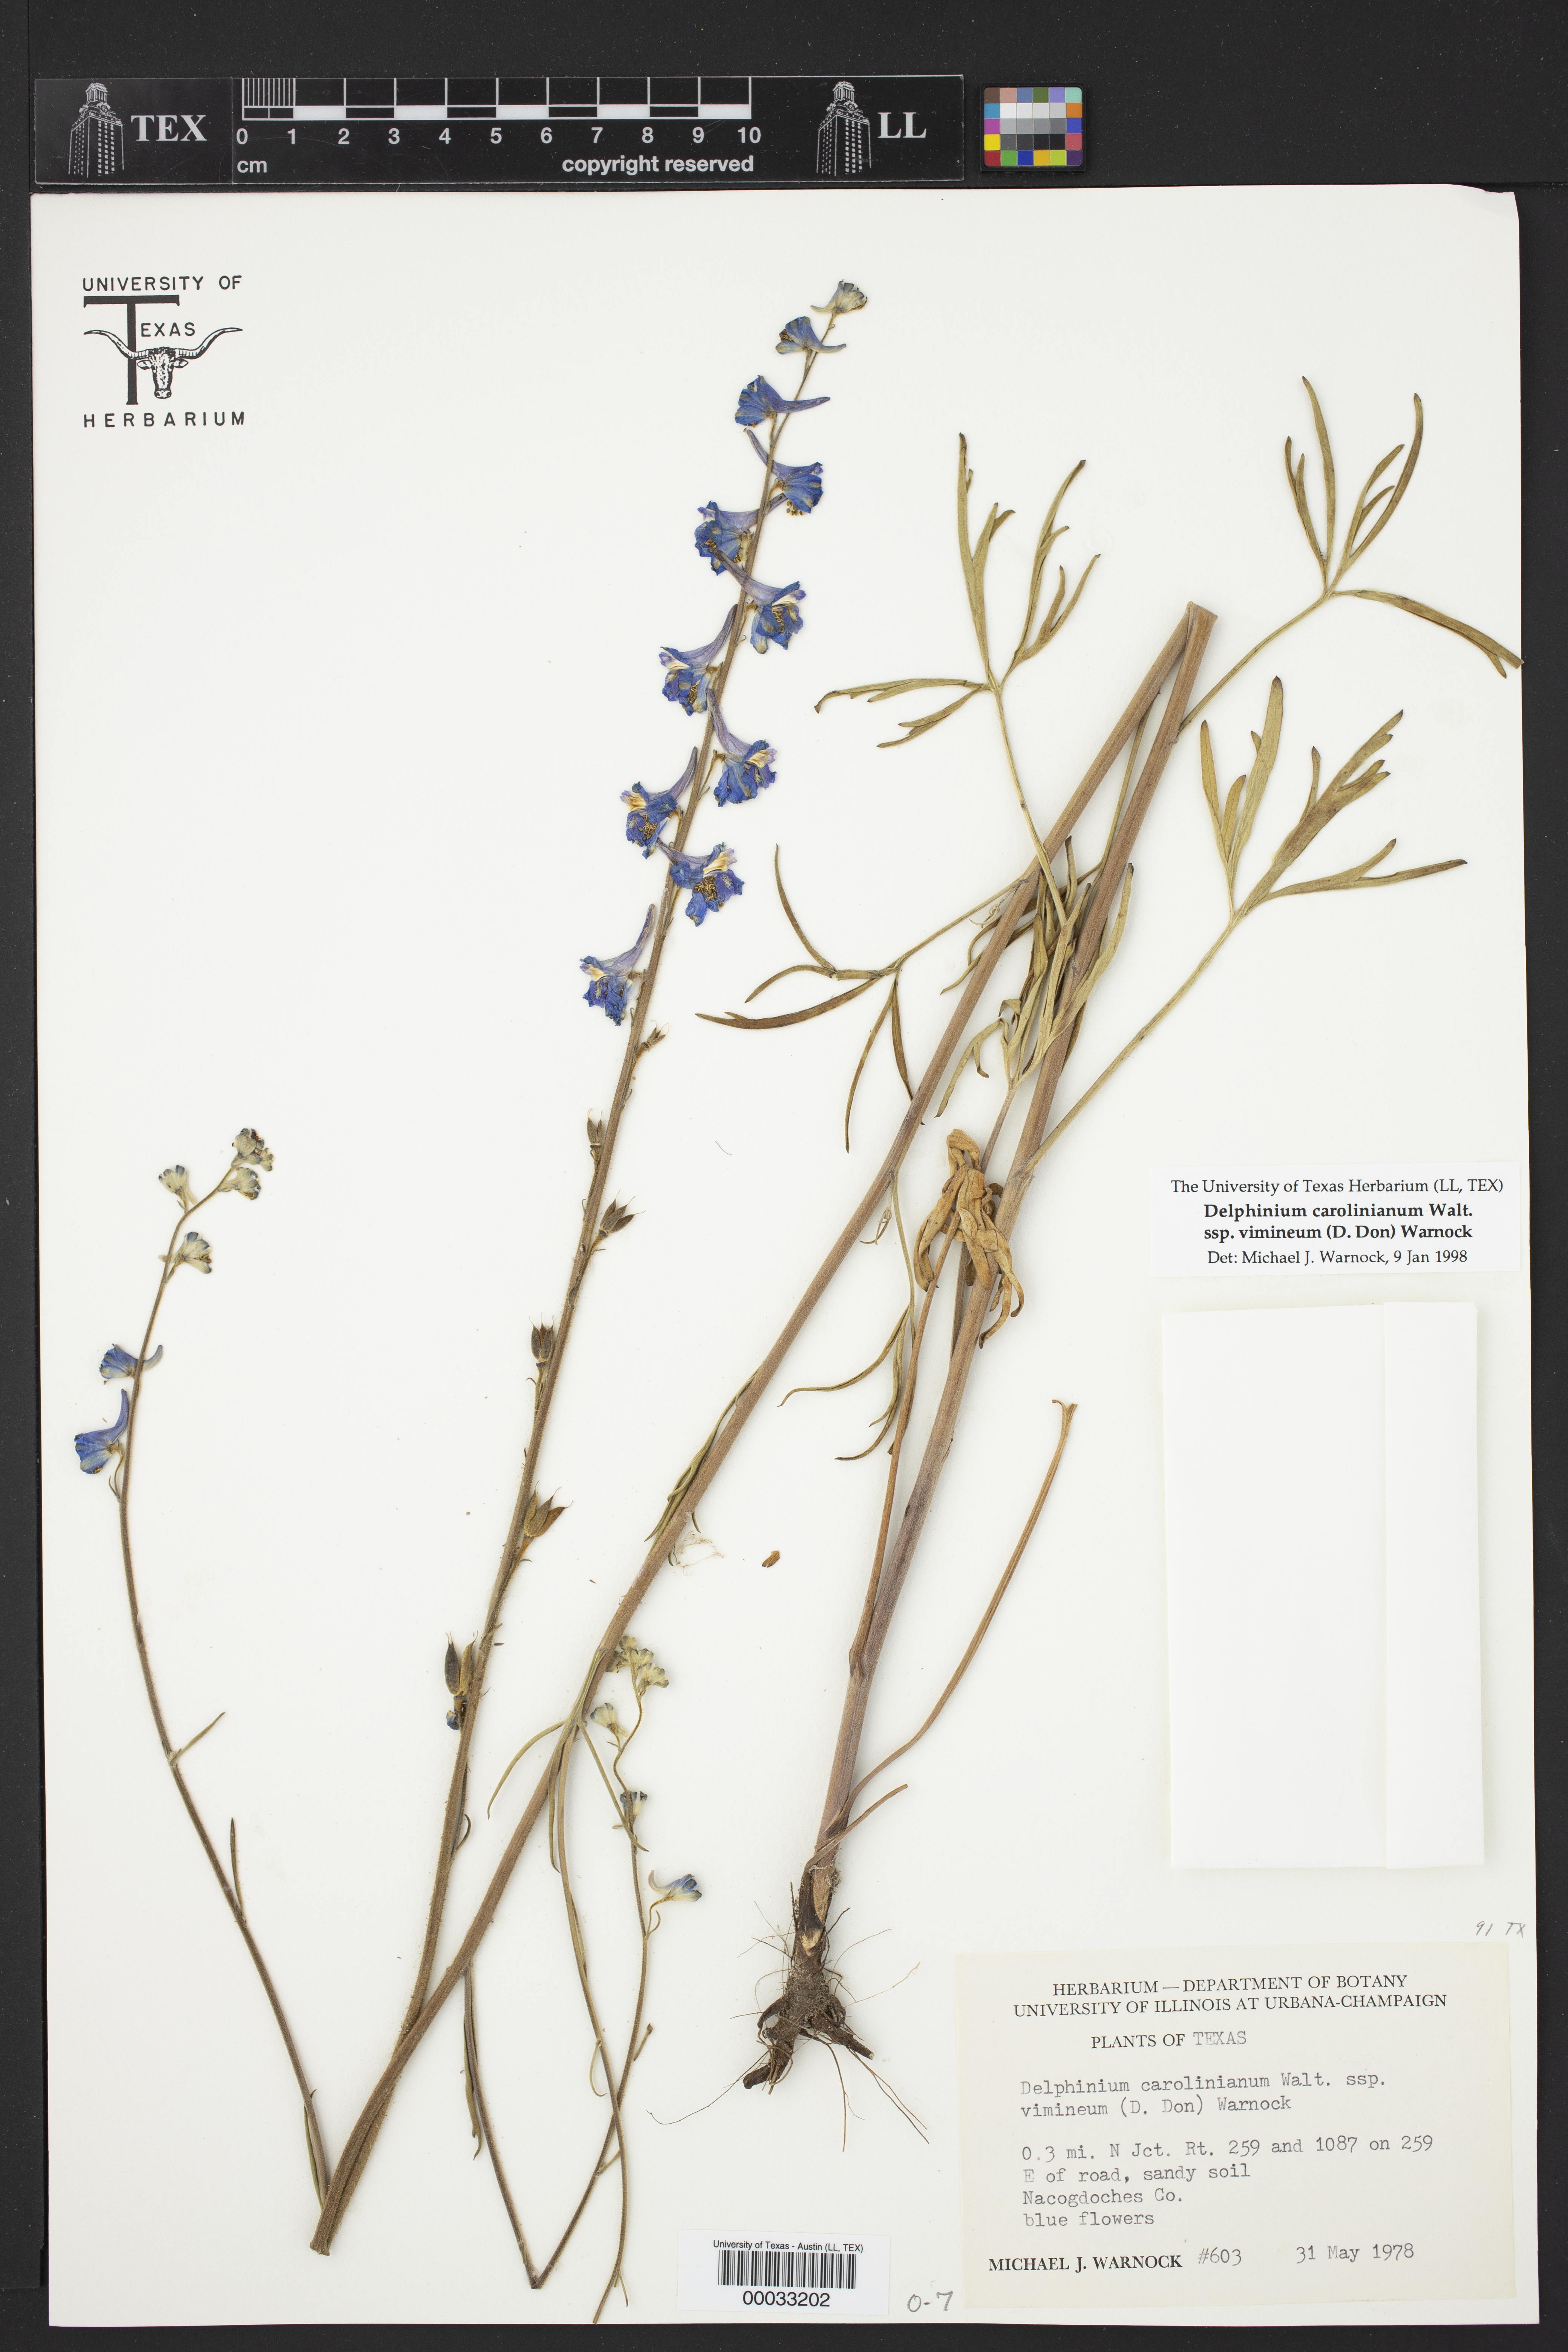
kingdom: Plantae
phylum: Tracheophyta
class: Magnoliopsida
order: Ranunculales
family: Ranunculaceae
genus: Delphinium
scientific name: Delphinium carolinianum
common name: Carolina larkspur
